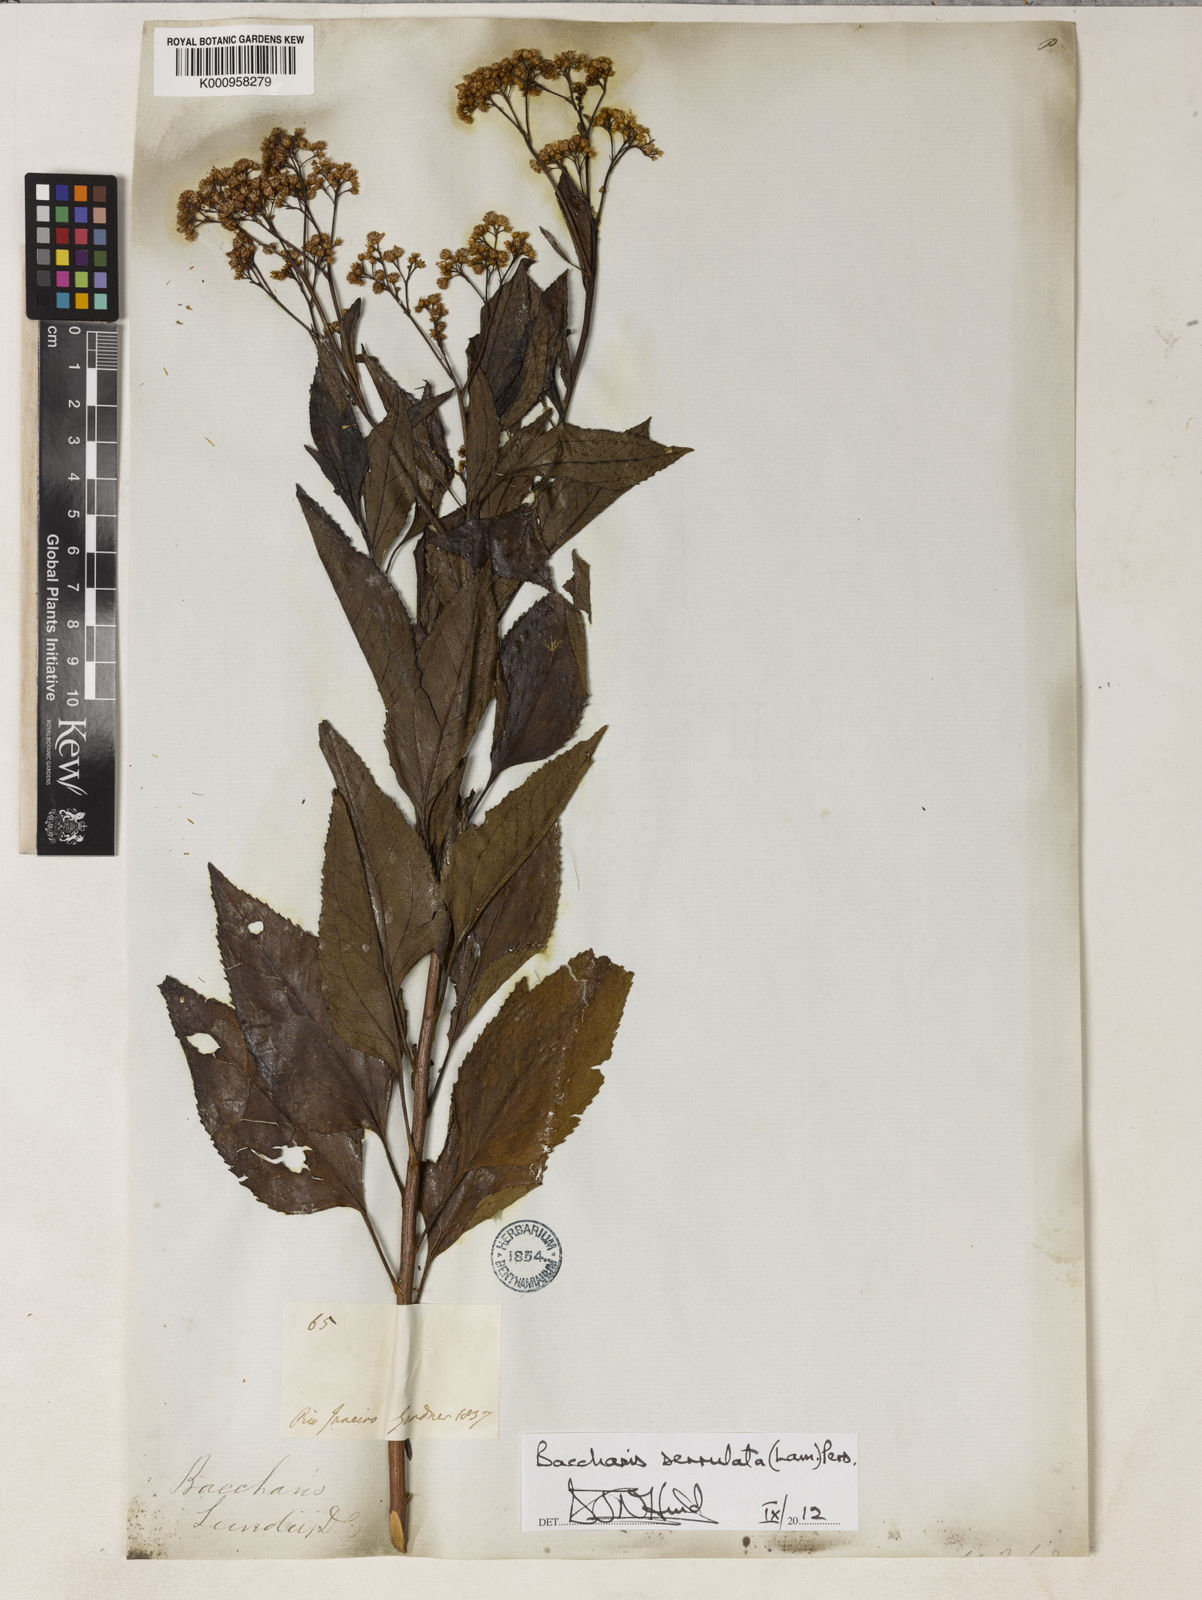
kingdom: Plantae
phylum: Tracheophyta
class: Magnoliopsida
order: Asterales
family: Asteraceae
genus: Baccharis
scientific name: Baccharis serrulata
